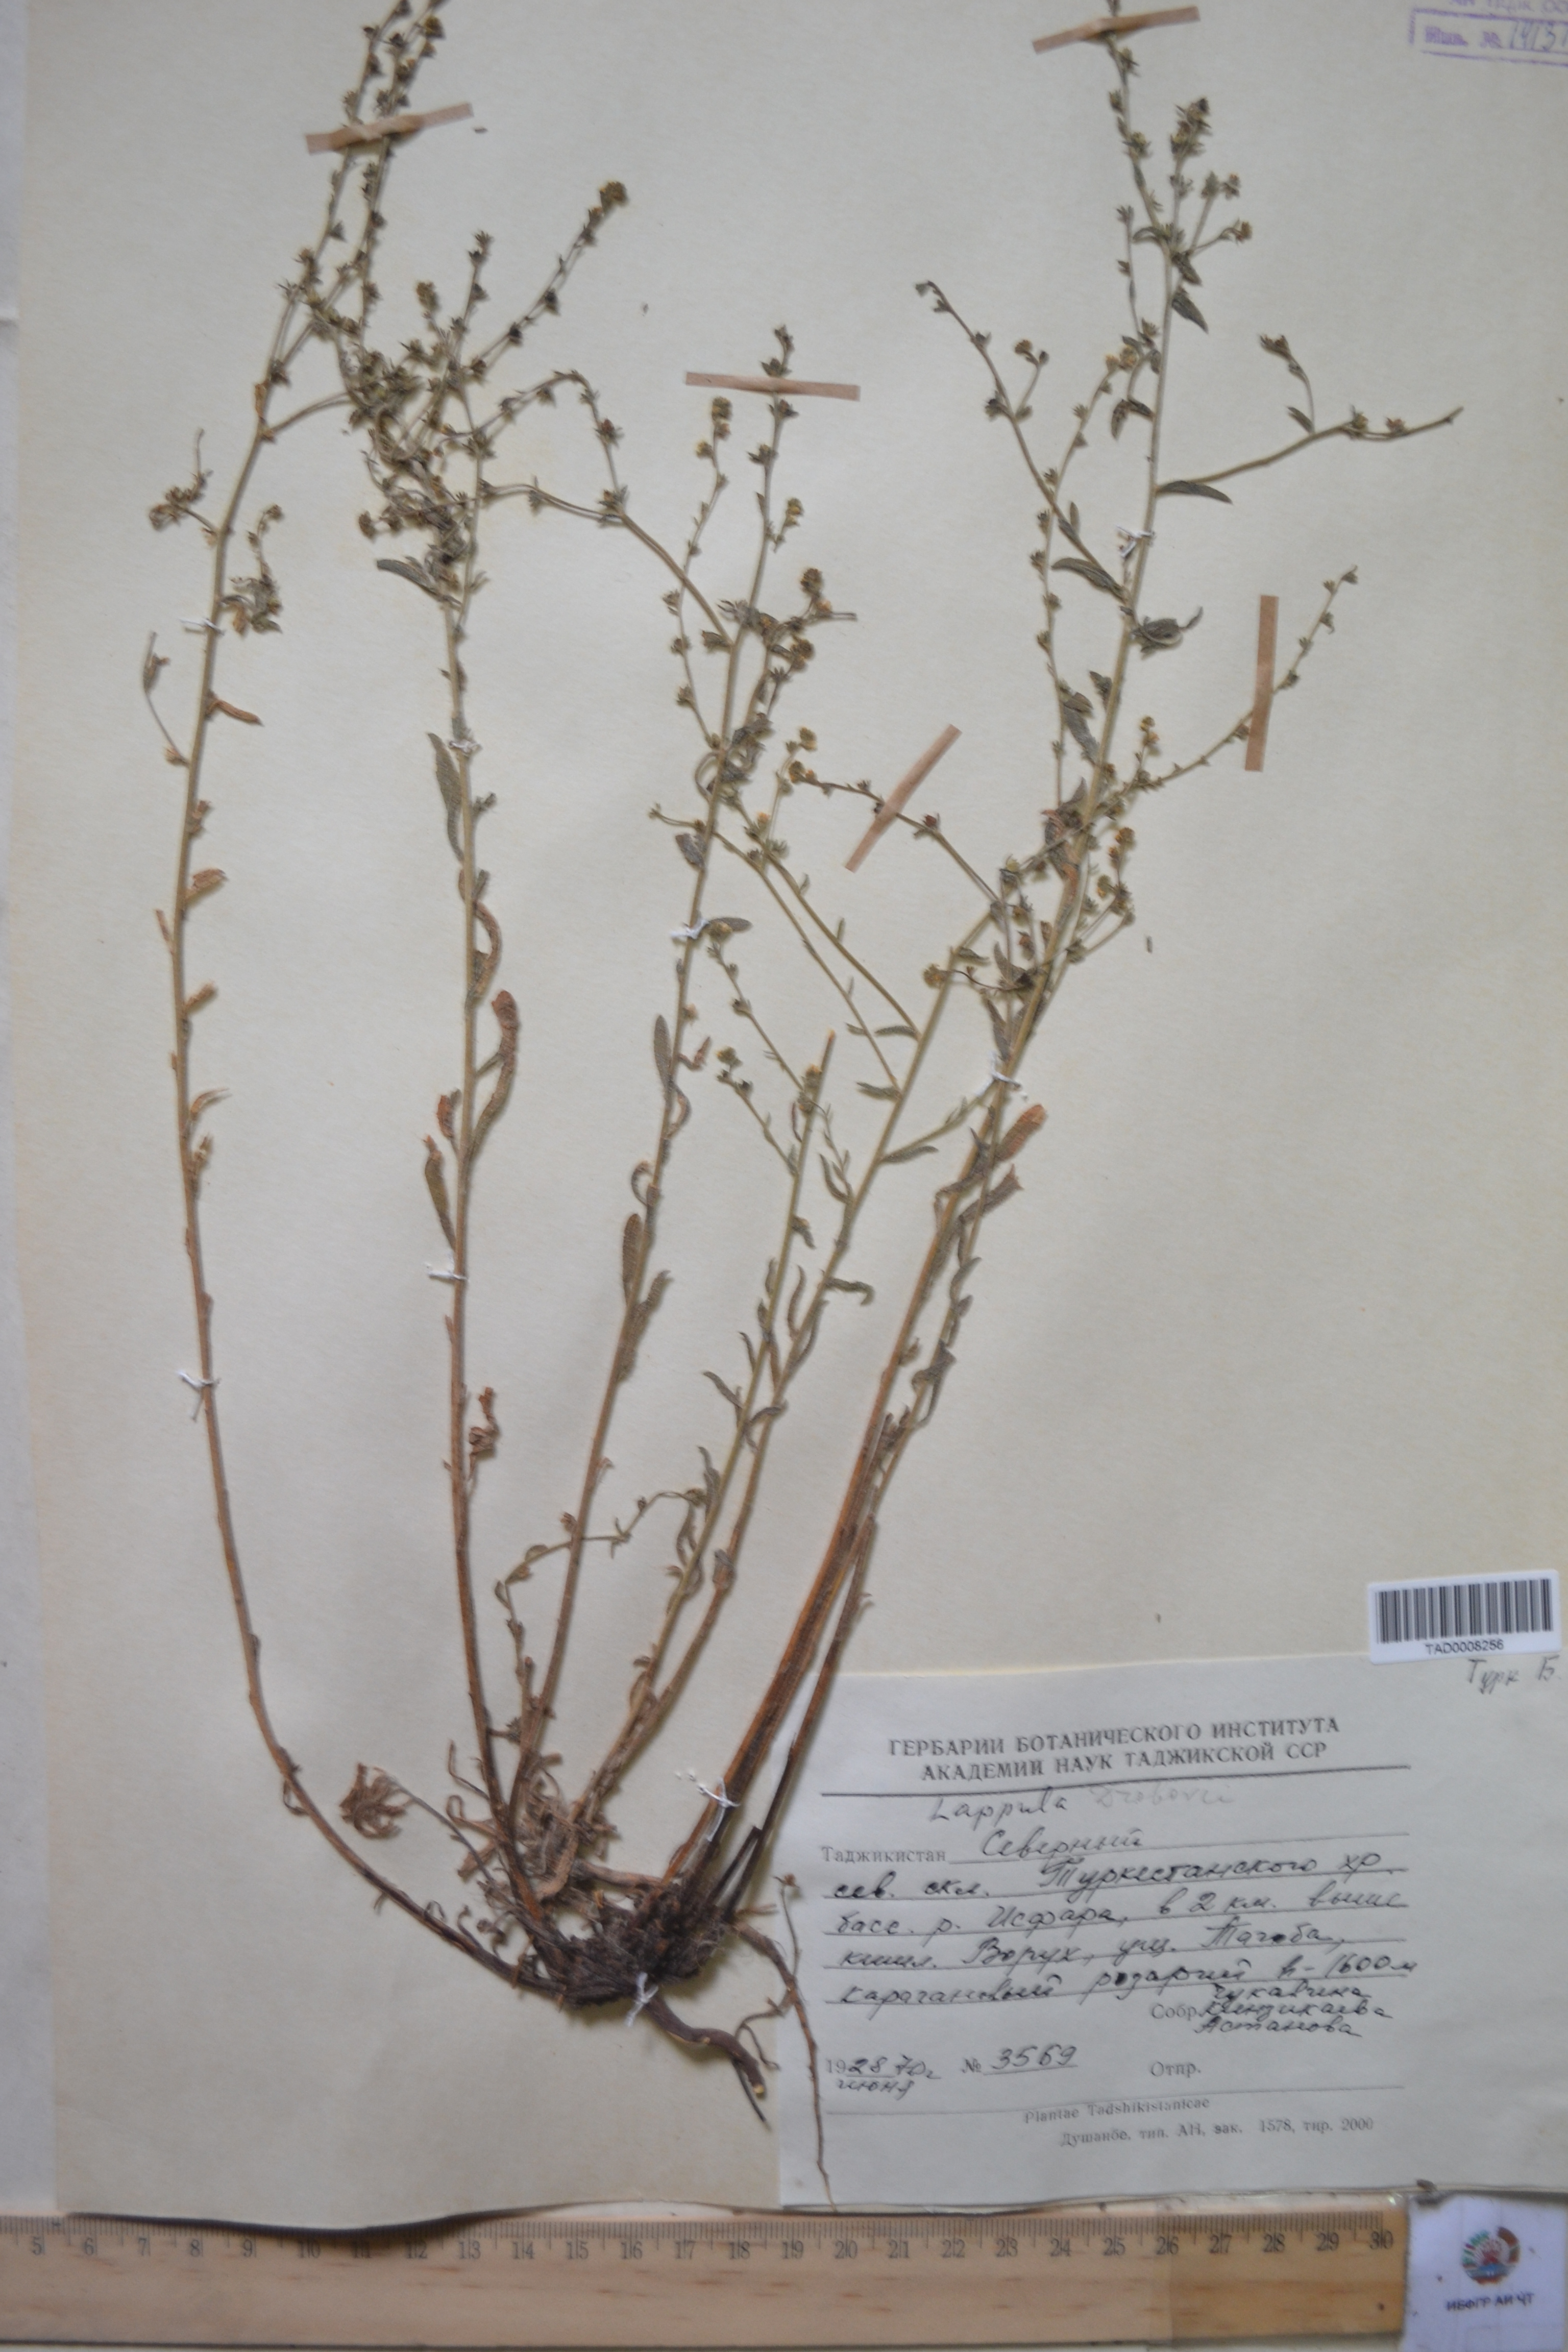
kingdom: Plantae
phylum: Tracheophyta
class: Magnoliopsida
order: Boraginales
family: Boraginaceae
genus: Rochelia
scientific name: Rochelia drobovii
